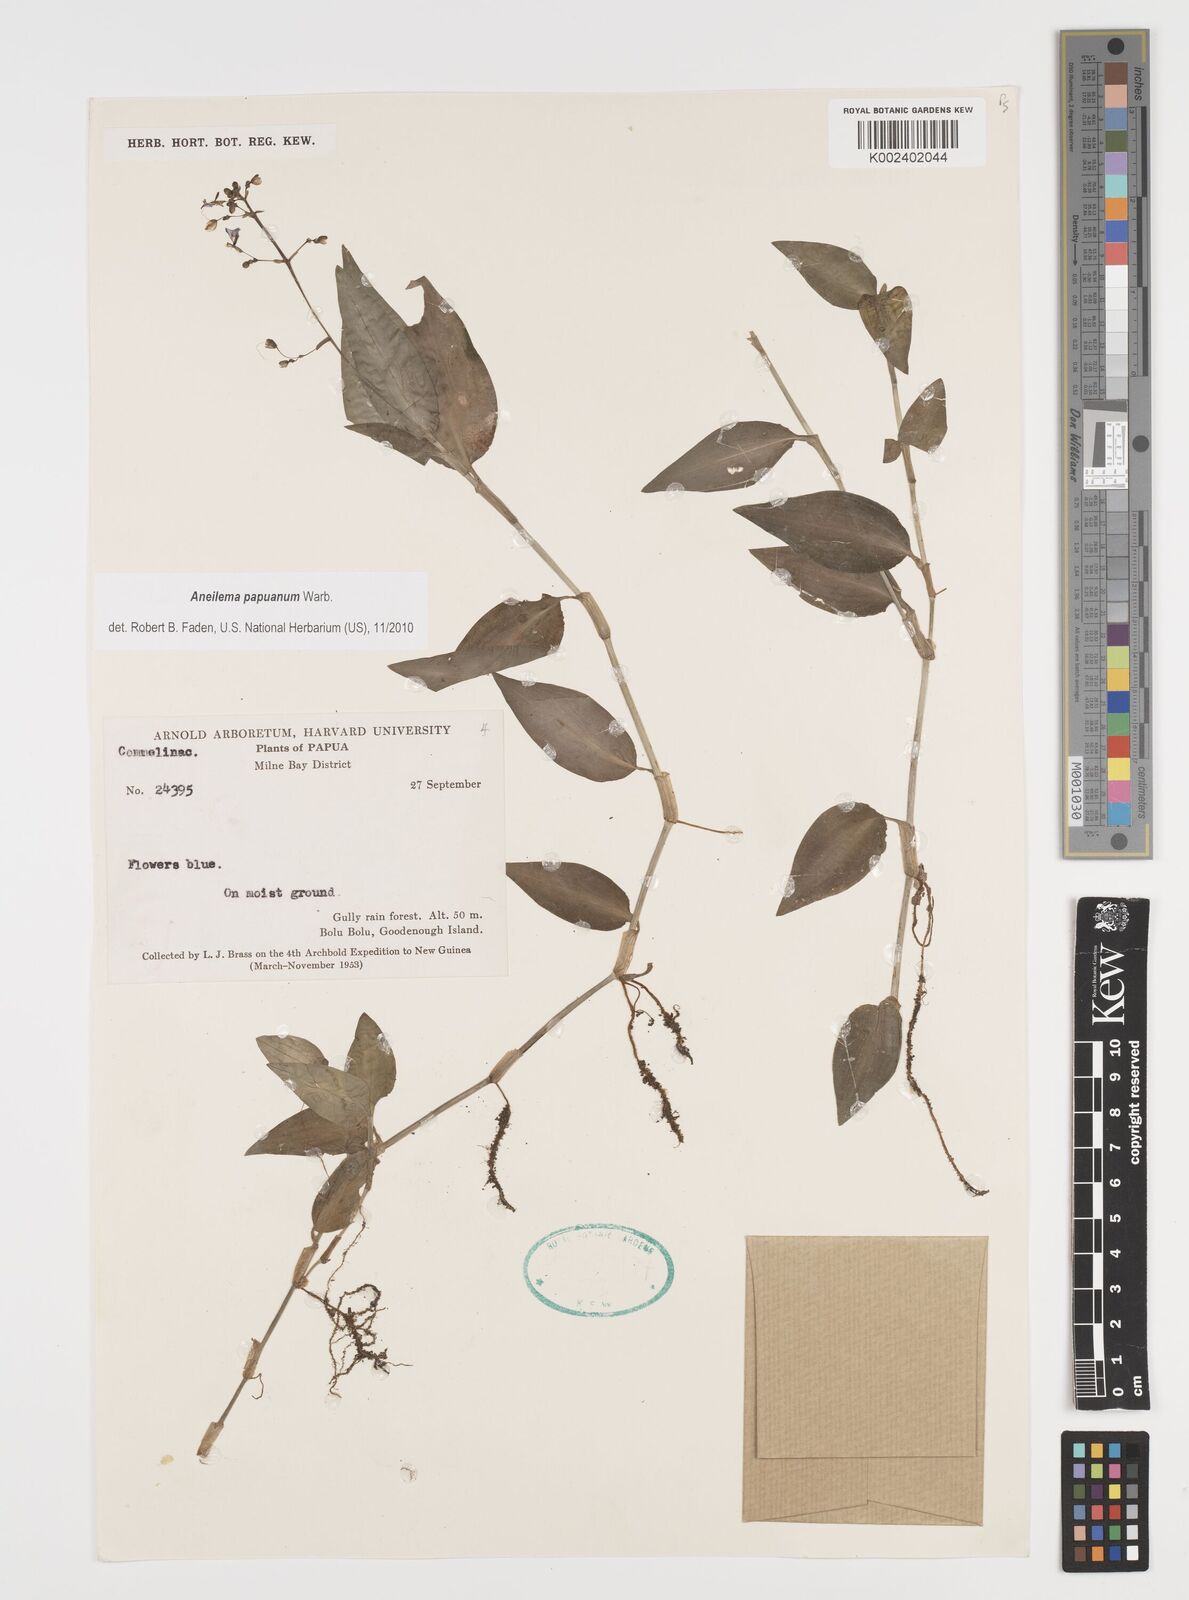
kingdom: Plantae
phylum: Tracheophyta
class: Liliopsida
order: Commelinales
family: Commelinaceae
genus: Aneilema
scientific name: Aneilema acuminatum
